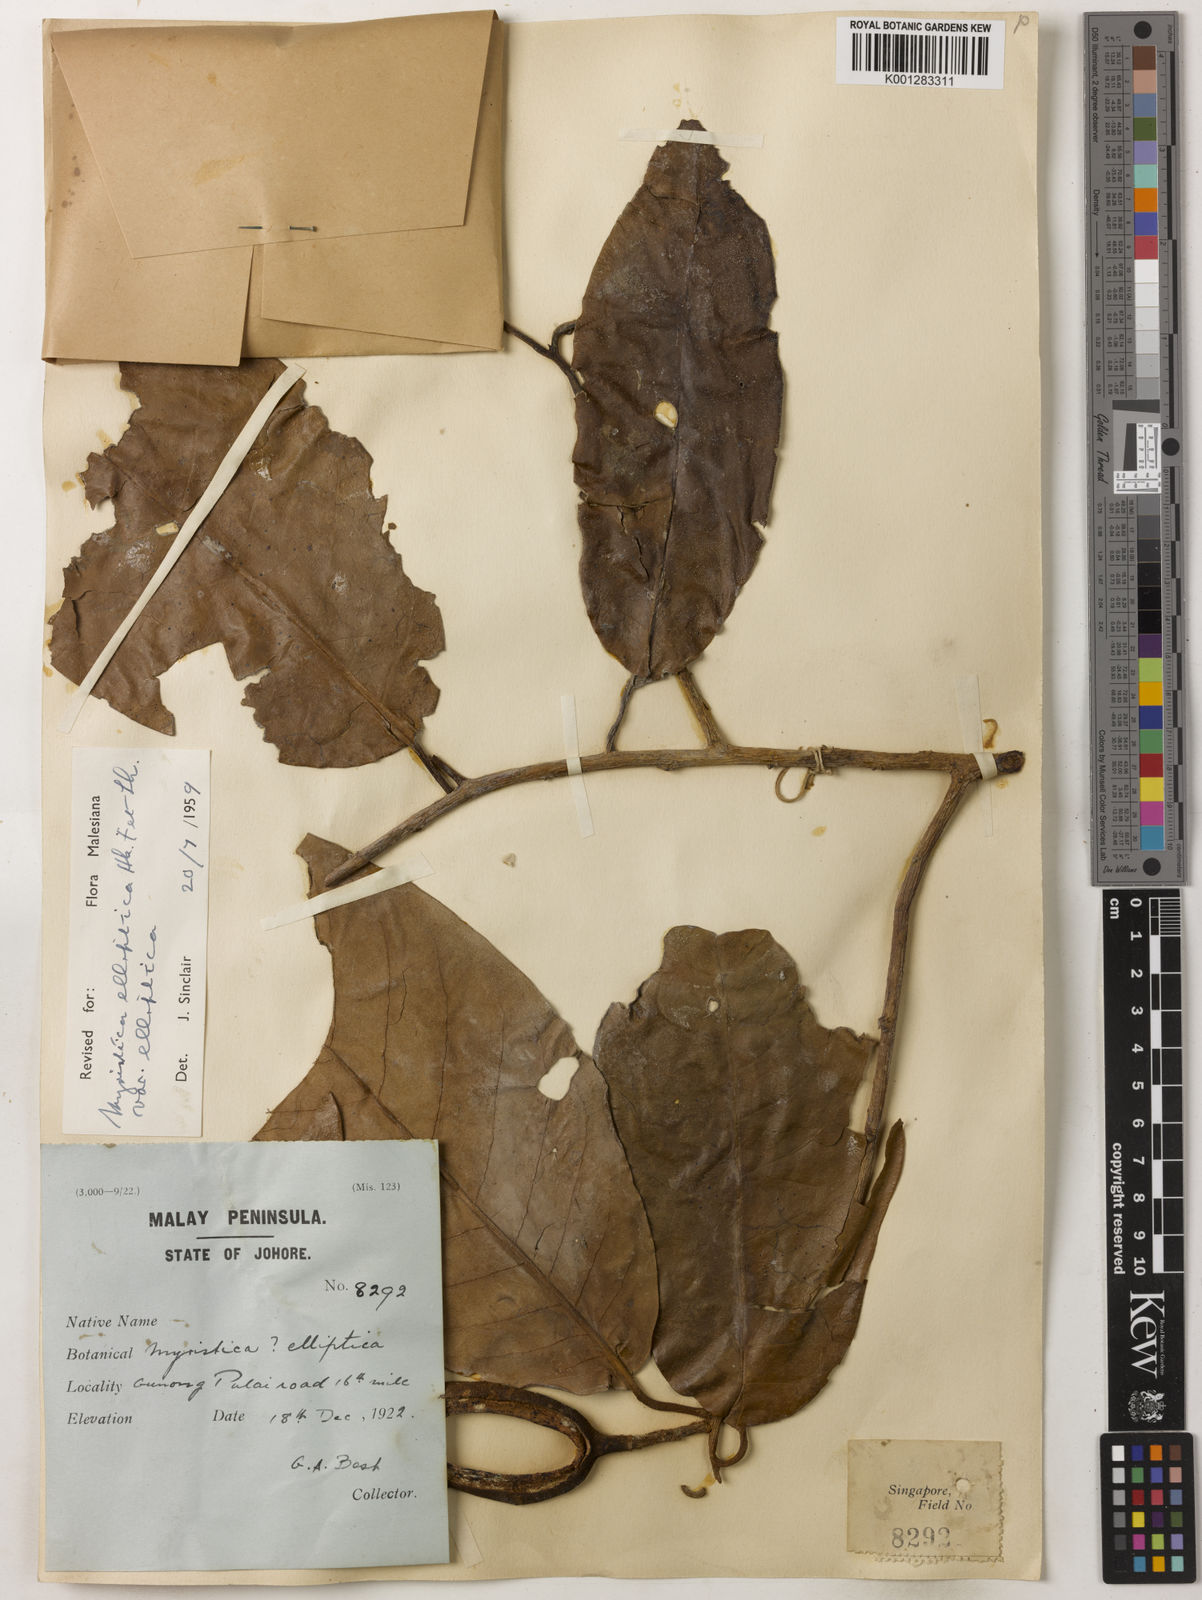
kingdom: Plantae
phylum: Tracheophyta
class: Magnoliopsida
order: Magnoliales
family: Myristicaceae
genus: Myristica
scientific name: Myristica elliptica
